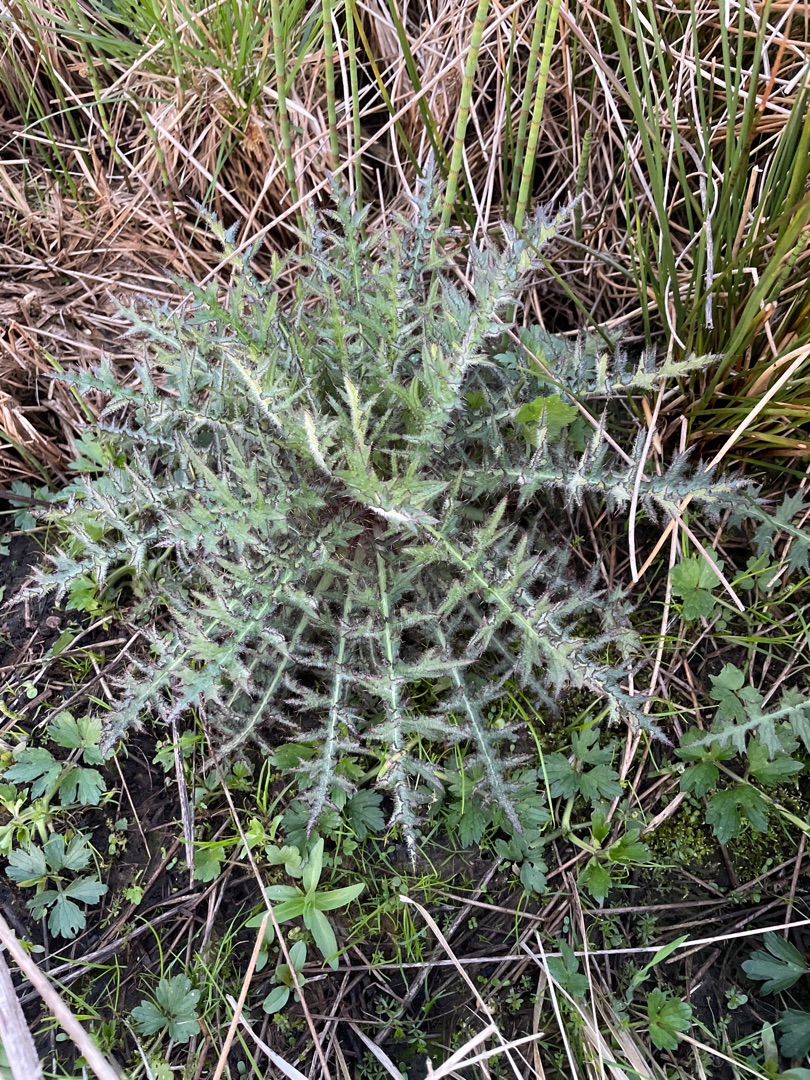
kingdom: Plantae
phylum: Tracheophyta
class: Magnoliopsida
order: Asterales
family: Asteraceae
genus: Cirsium
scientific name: Cirsium palustre
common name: Kær-tidsel
